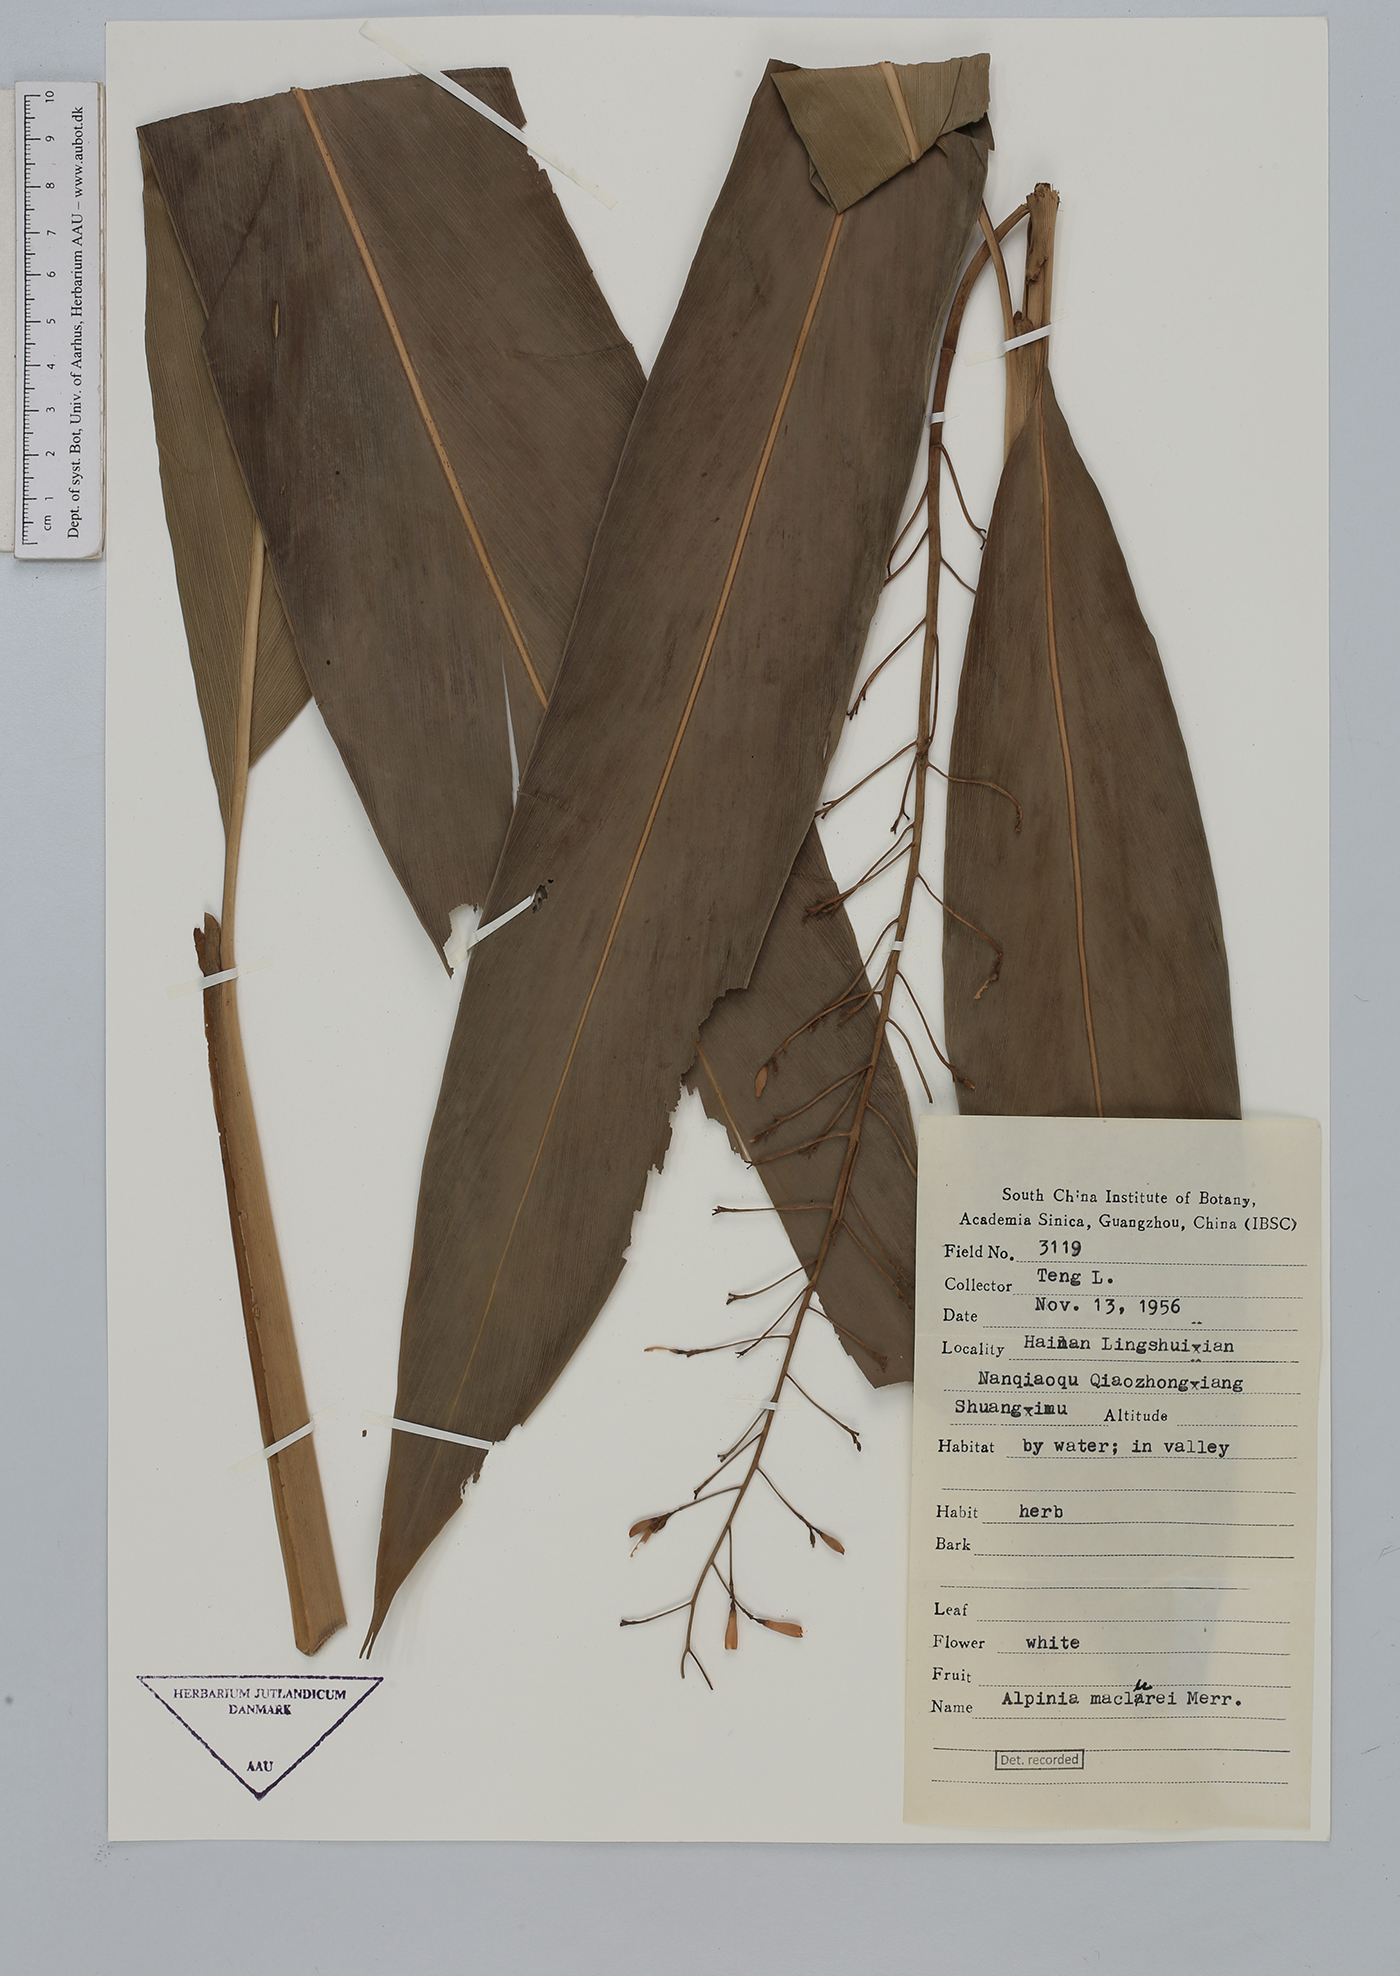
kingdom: Plantae
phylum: Tracheophyta
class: Liliopsida
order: Zingiberales
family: Zingiberaceae
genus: Alpinia
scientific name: Alpinia maclurei
